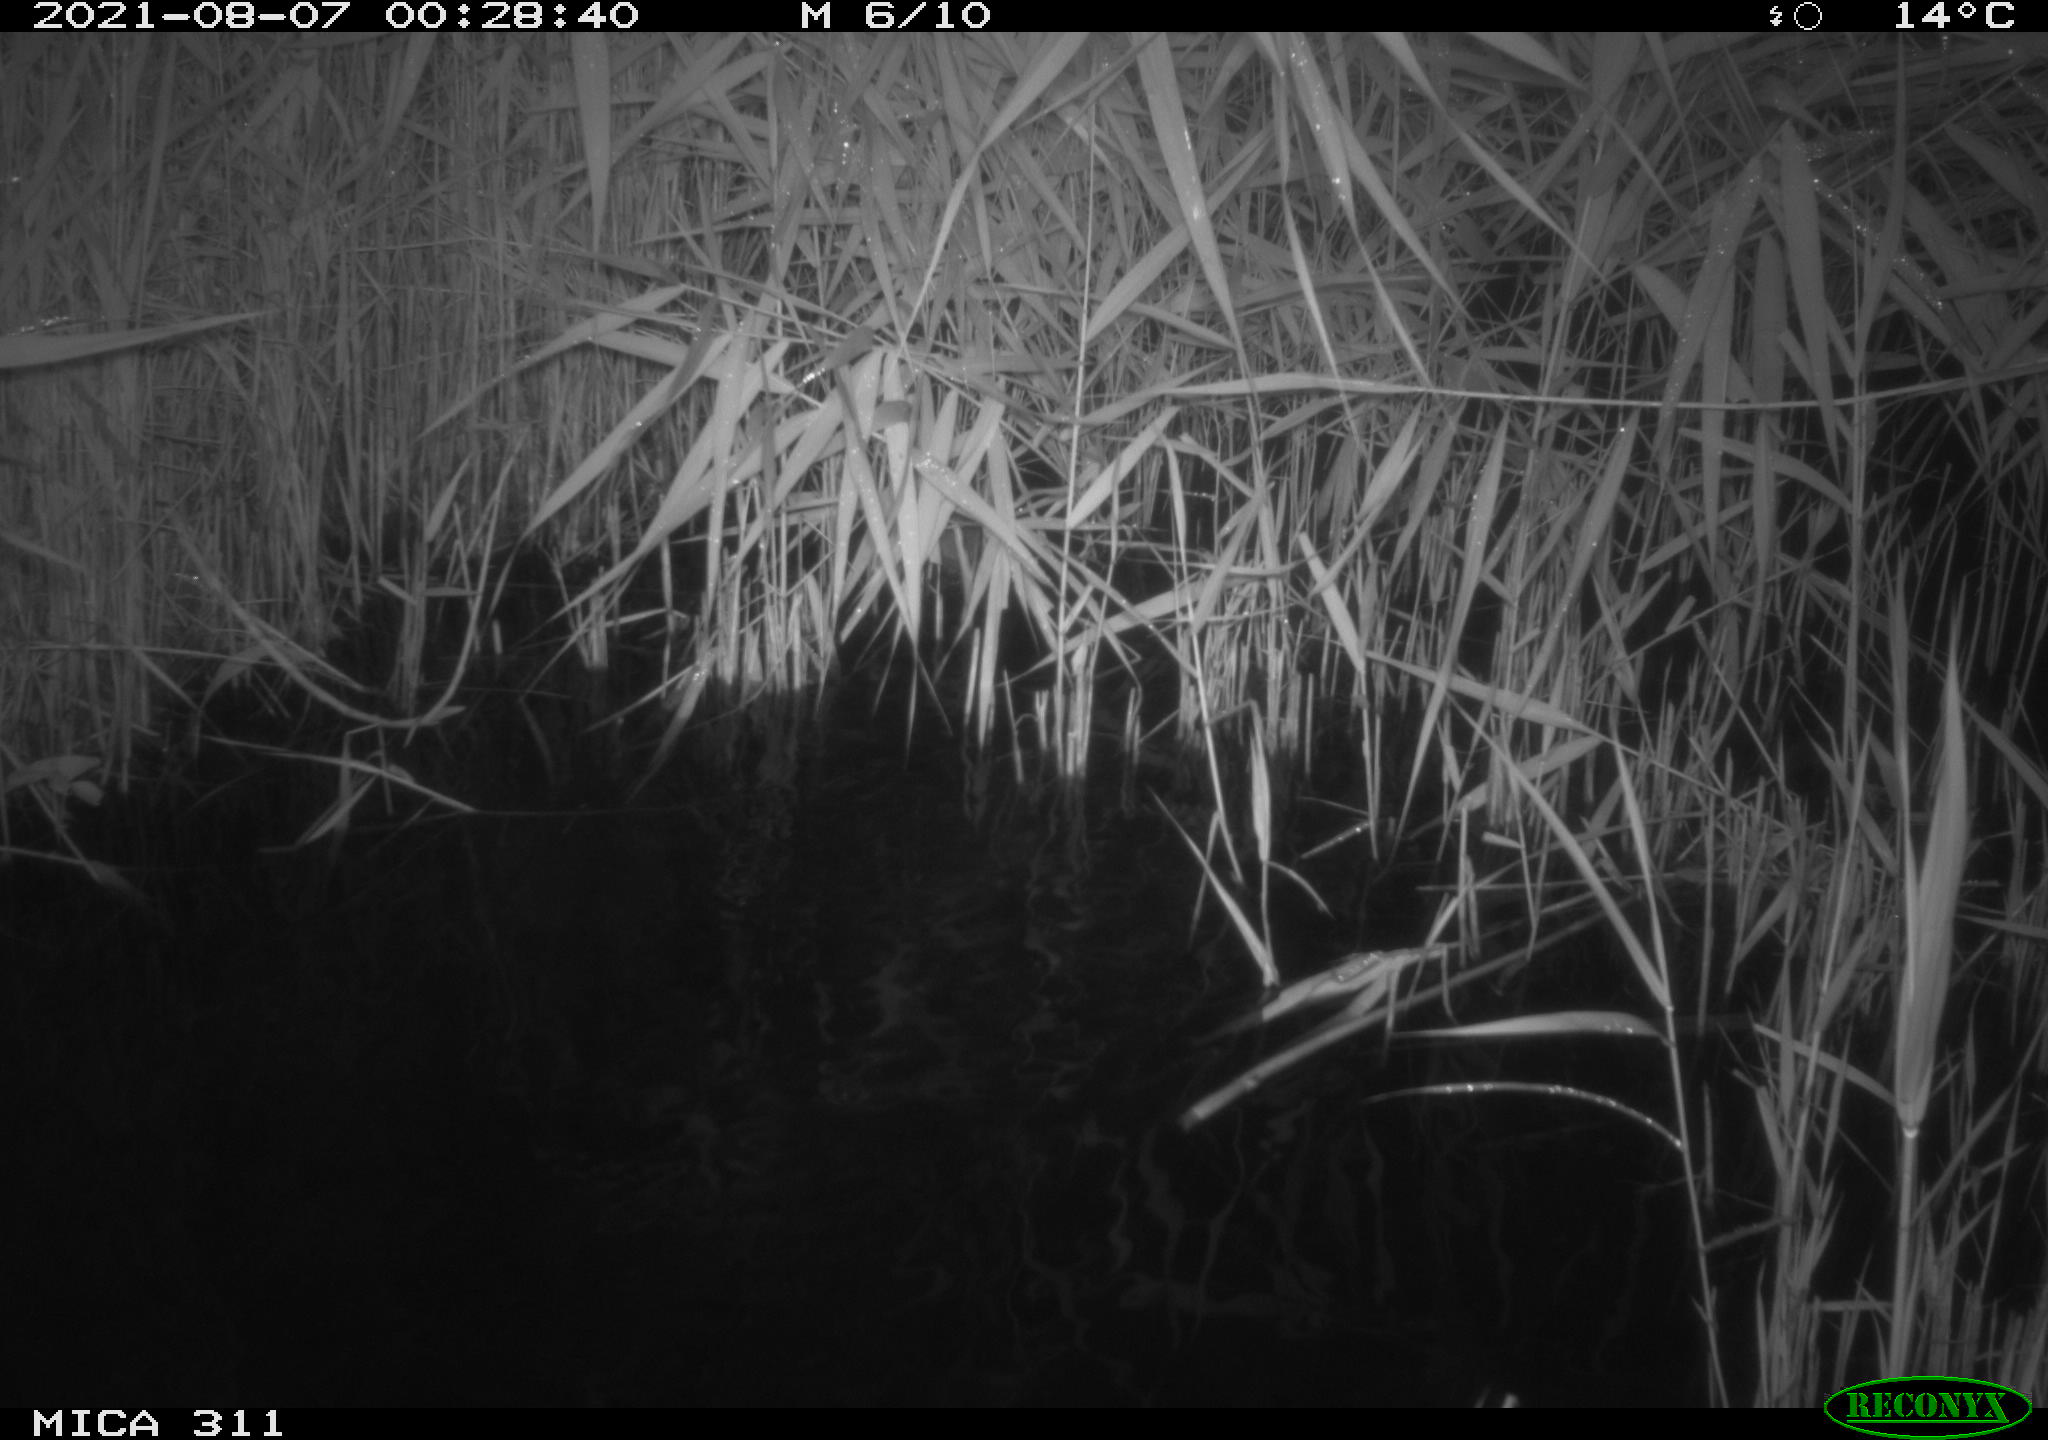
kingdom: Animalia
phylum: Chordata
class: Mammalia
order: Rodentia
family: Muridae
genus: Rattus
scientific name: Rattus norvegicus
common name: Brown rat
